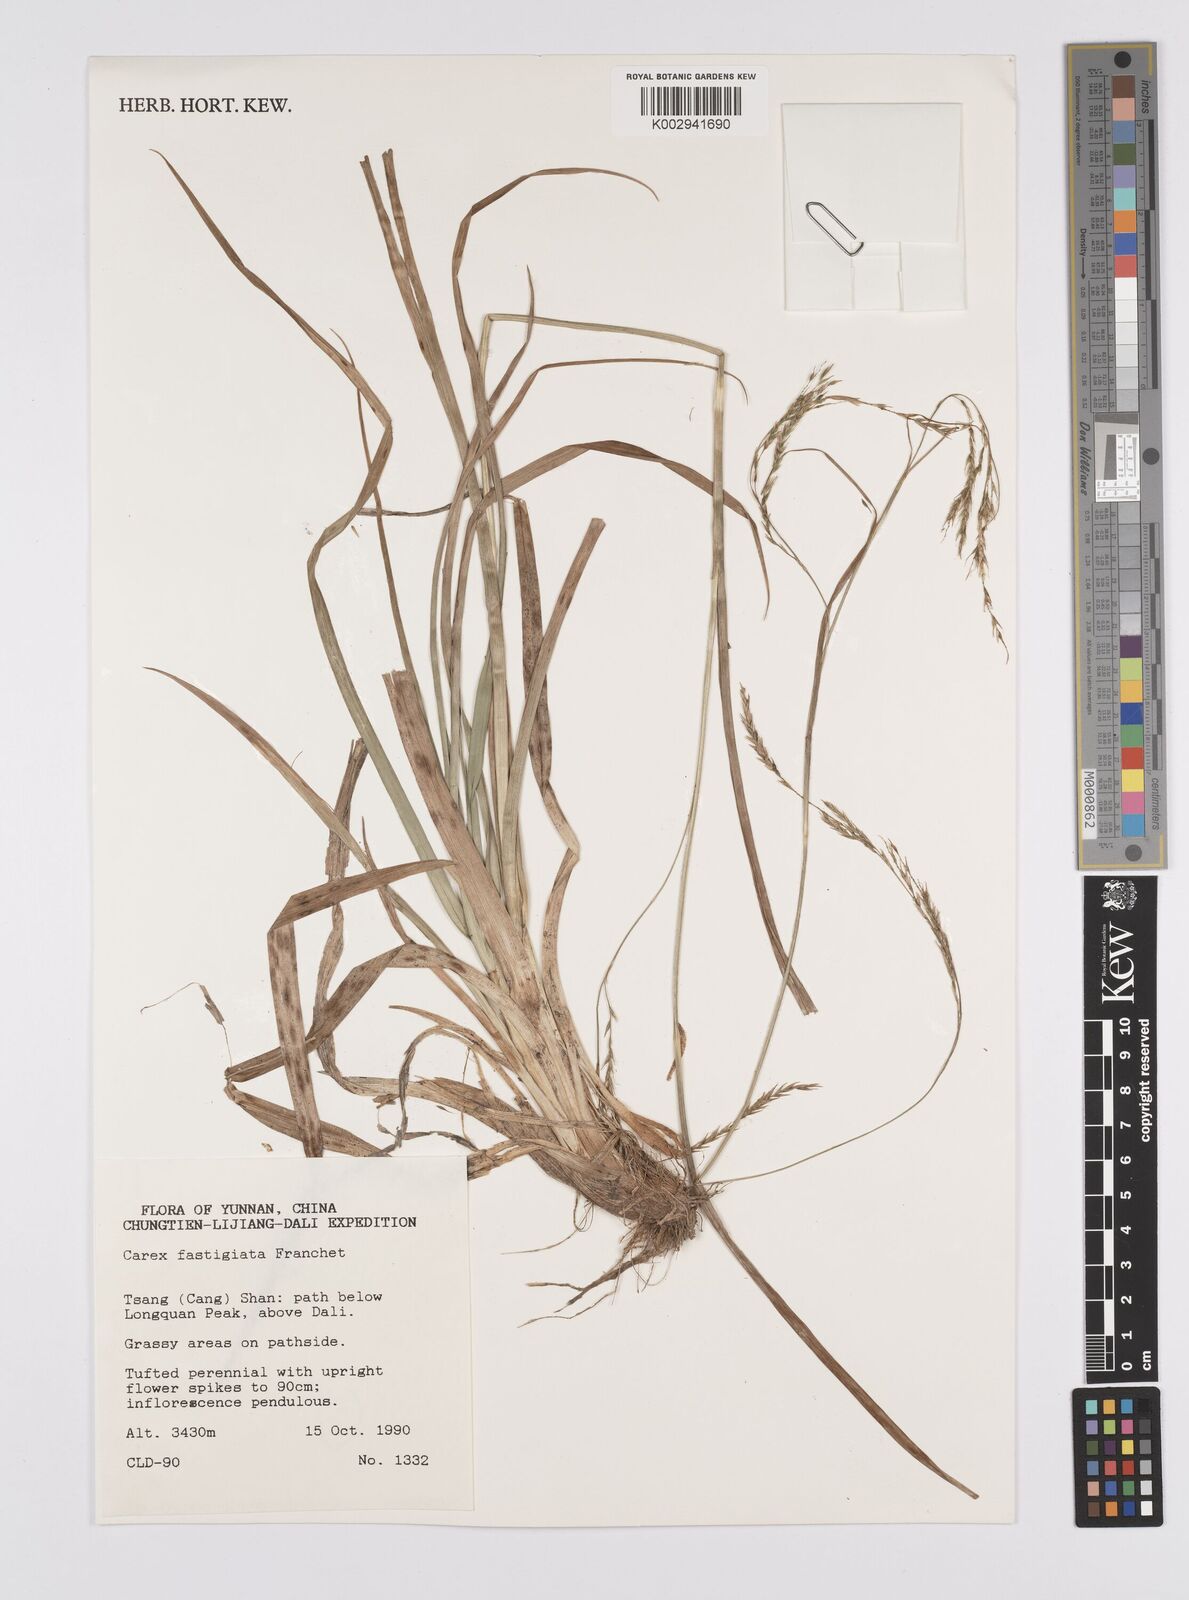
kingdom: Plantae
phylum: Tracheophyta
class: Liliopsida
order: Poales
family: Cyperaceae
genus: Carex
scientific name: Carex fastigiata
